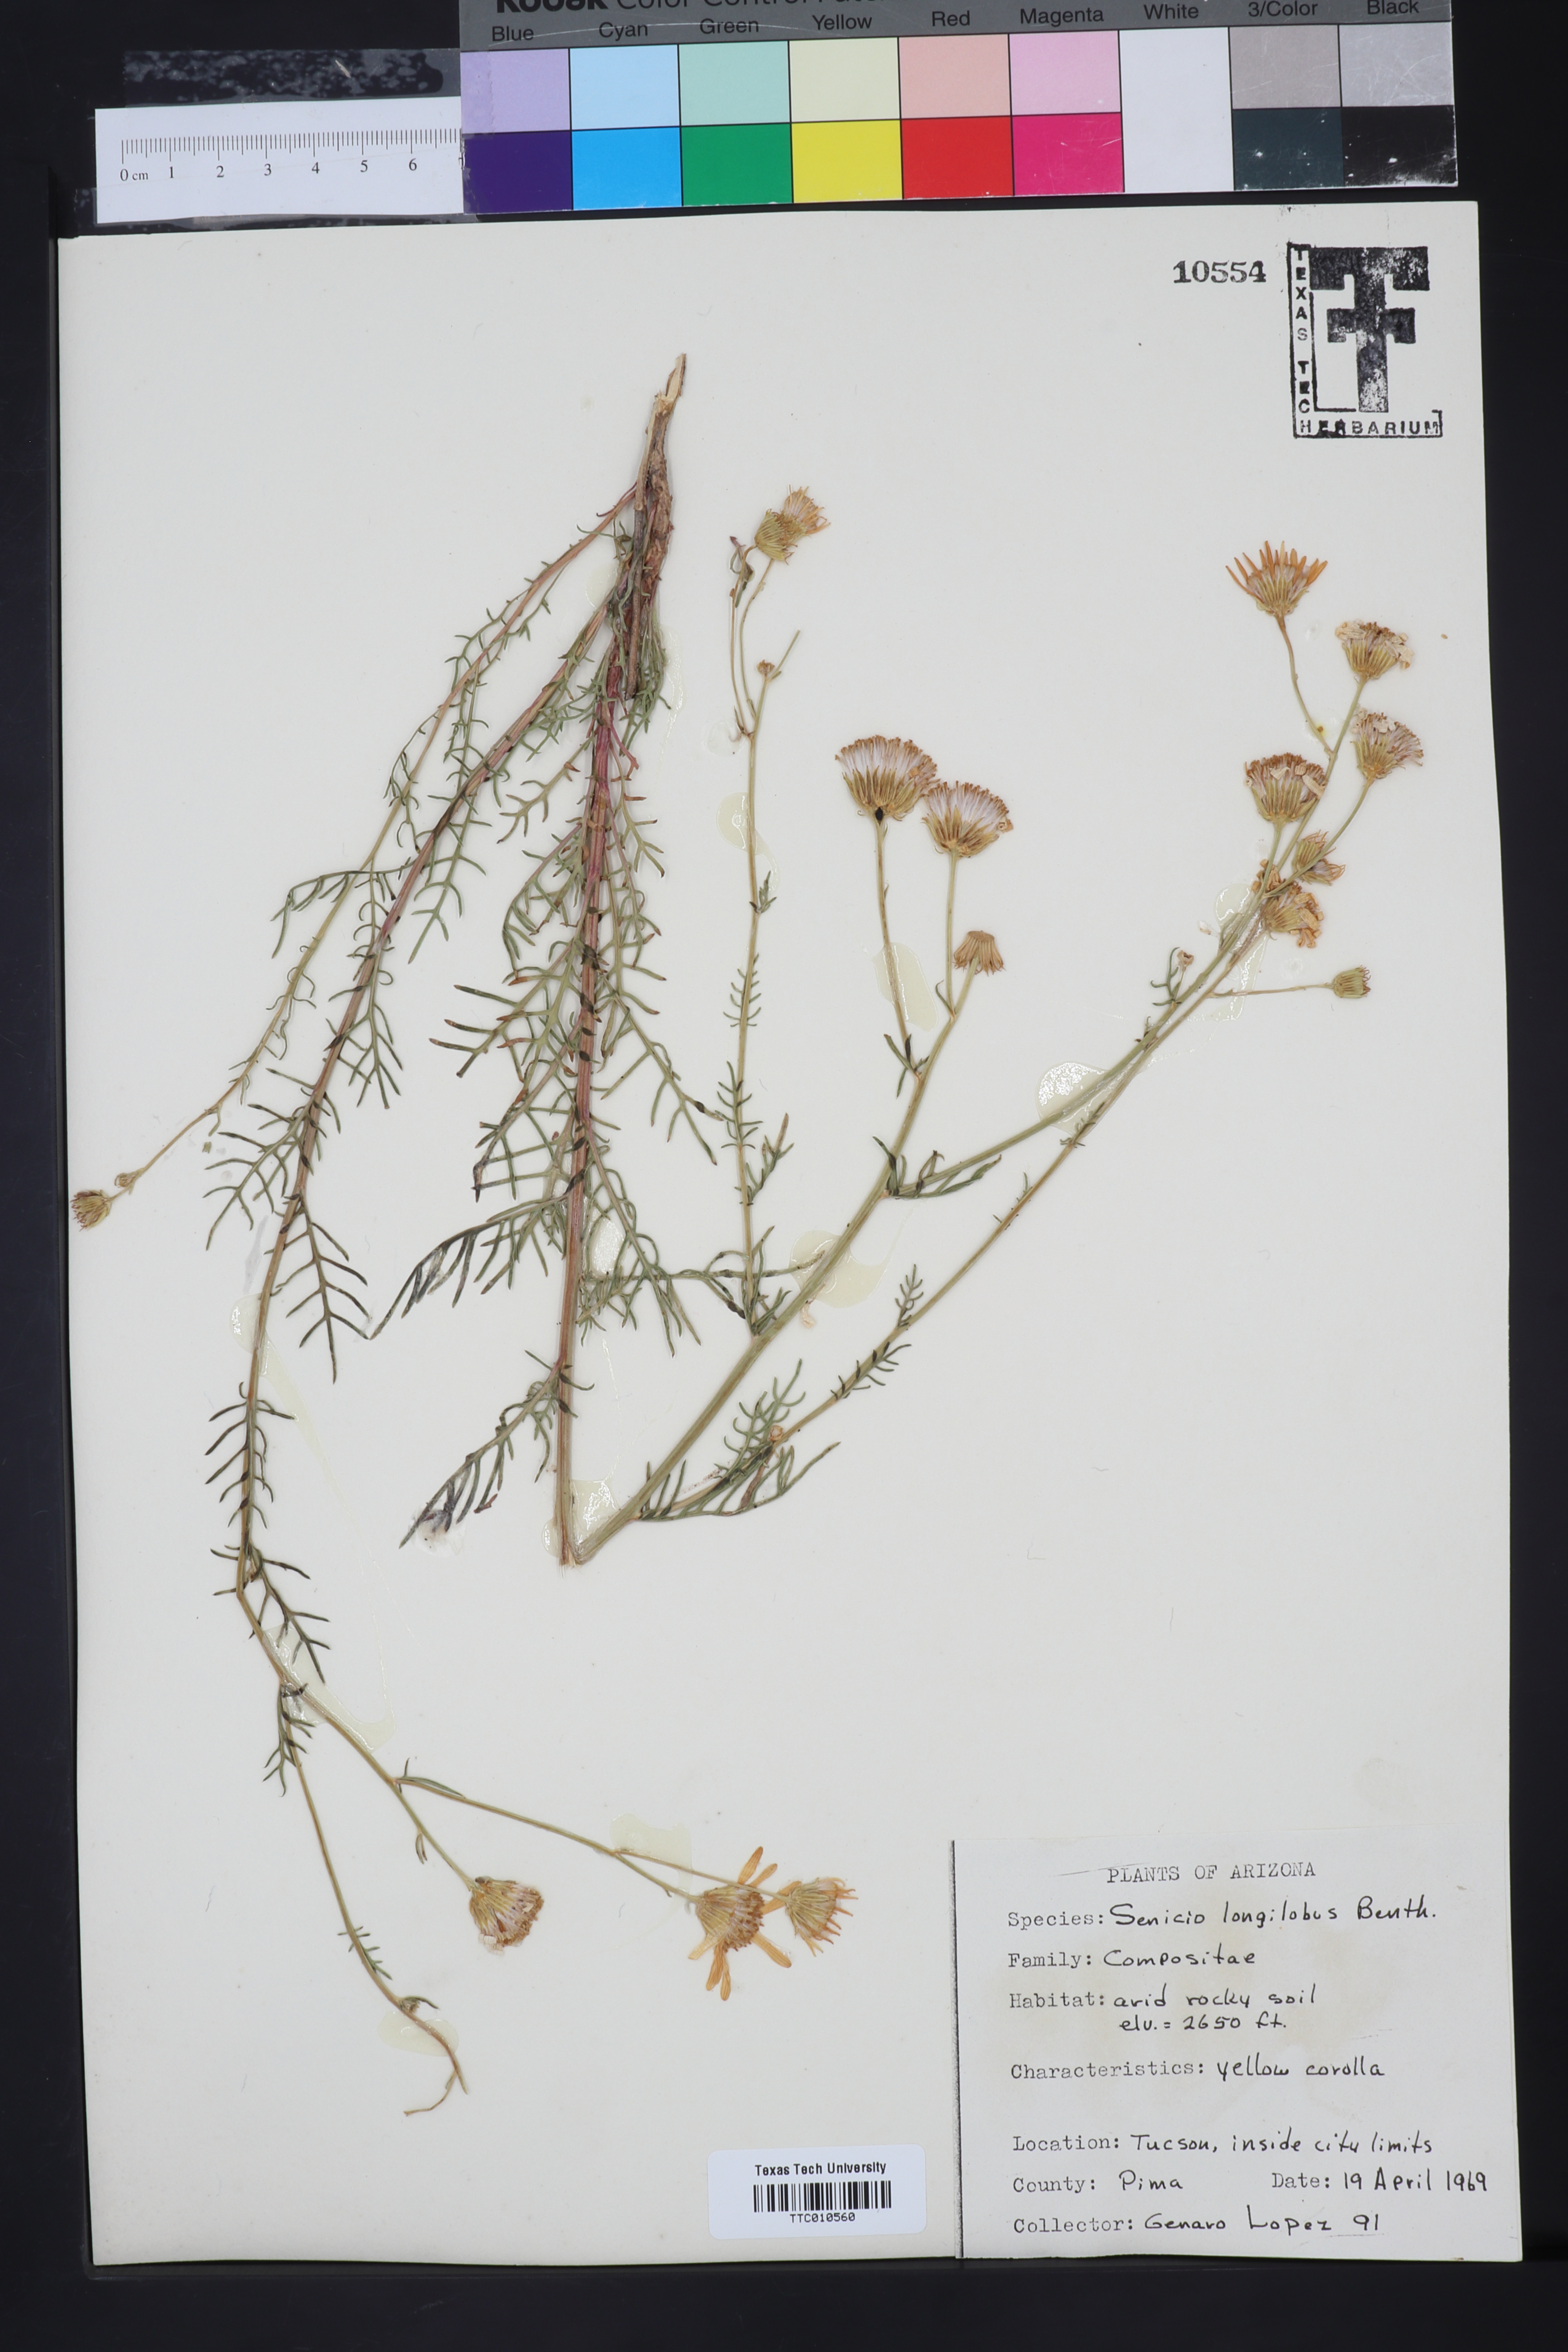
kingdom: Plantae
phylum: Tracheophyta
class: Magnoliopsida
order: Asterales
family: Asteraceae
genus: Senecio
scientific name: Senecio flaccidus
